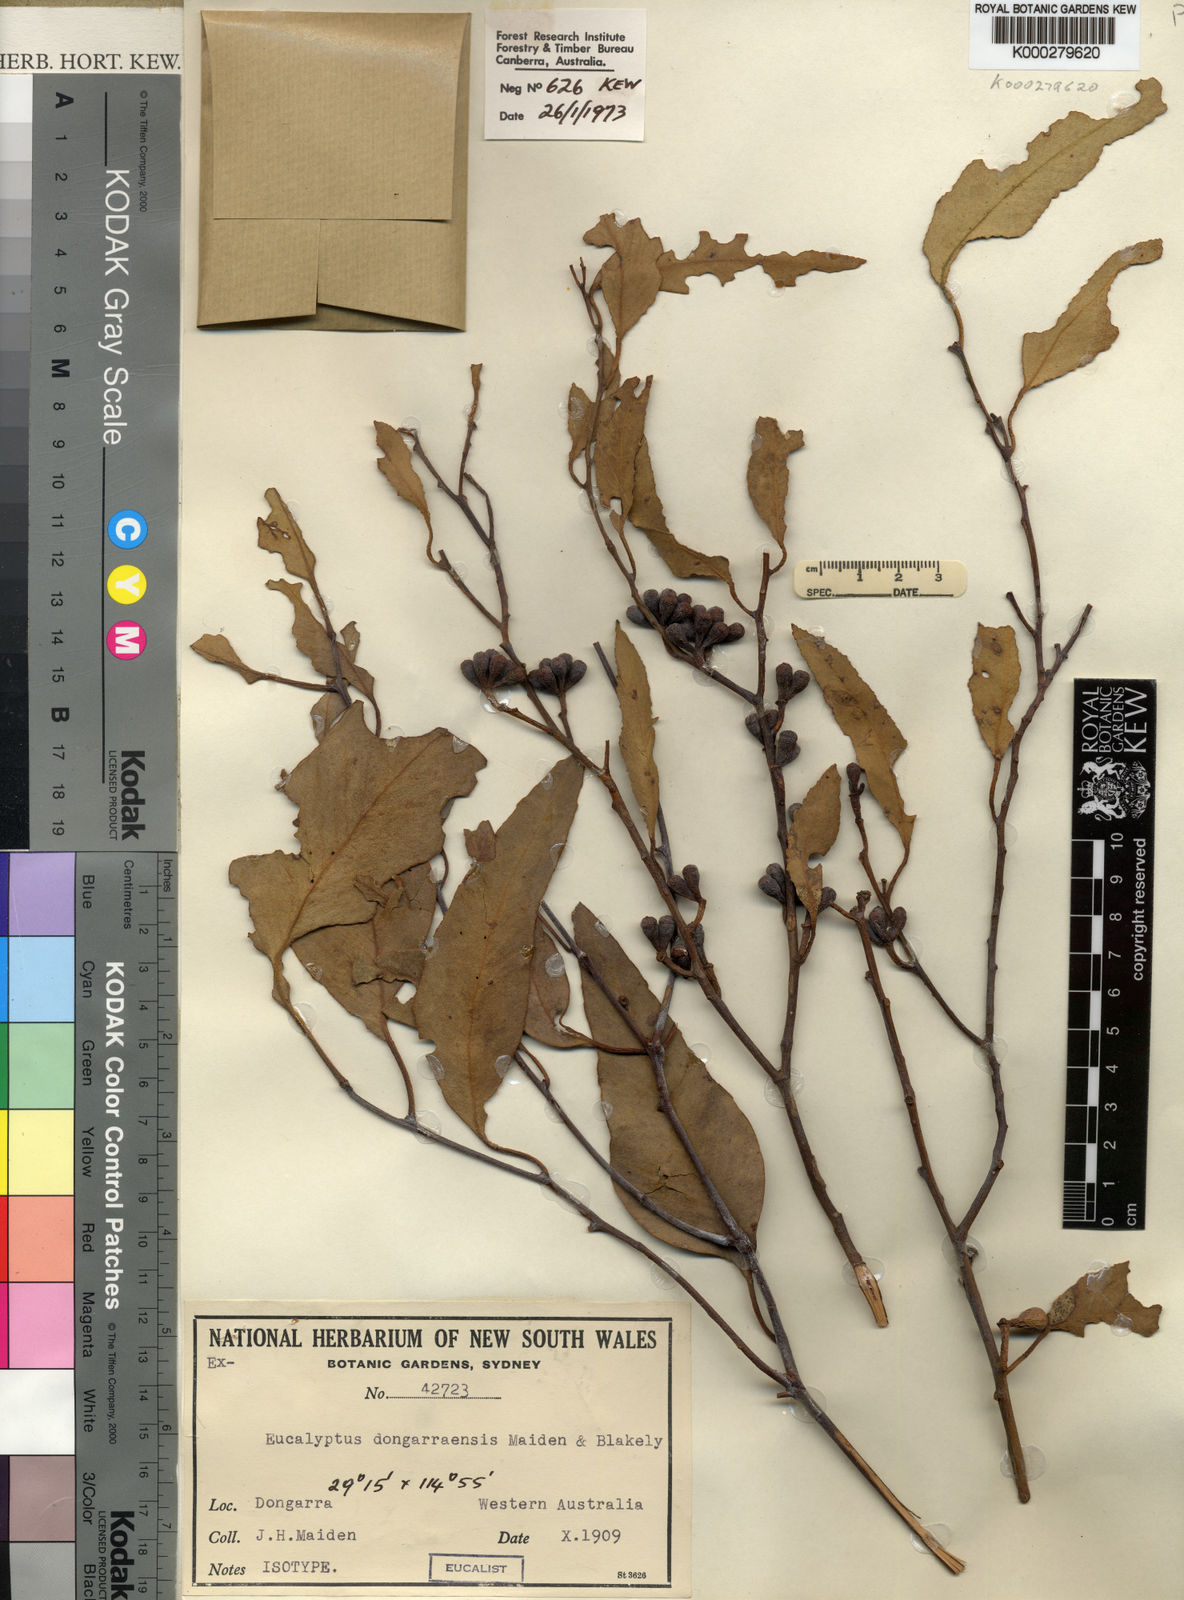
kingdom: Plantae
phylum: Tracheophyta
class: Magnoliopsida
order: Myrtales
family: Myrtaceae
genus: Eucalyptus
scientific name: Eucalyptus obtusiflora
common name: Dongara-mallee
